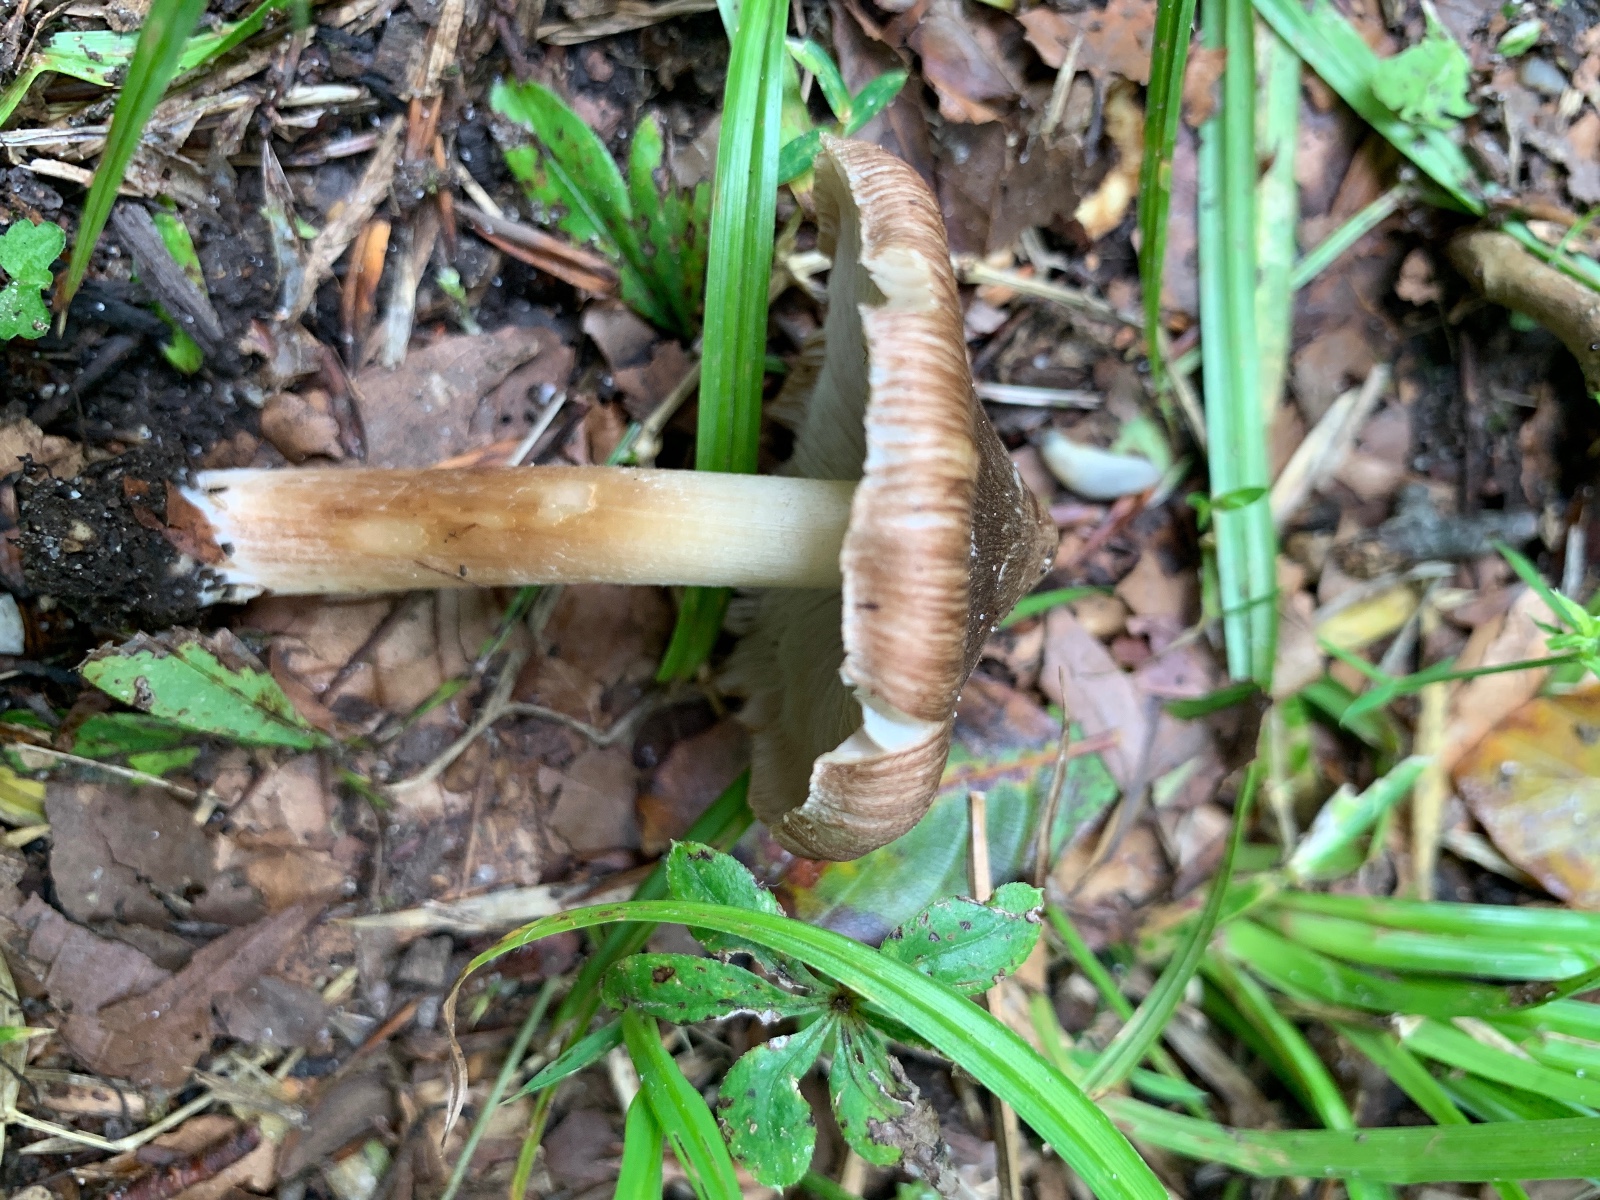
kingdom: Fungi
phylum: Basidiomycota
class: Agaricomycetes
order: Agaricales
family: Inocybaceae
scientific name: Inocybaceae
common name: trævlhatfamilien
